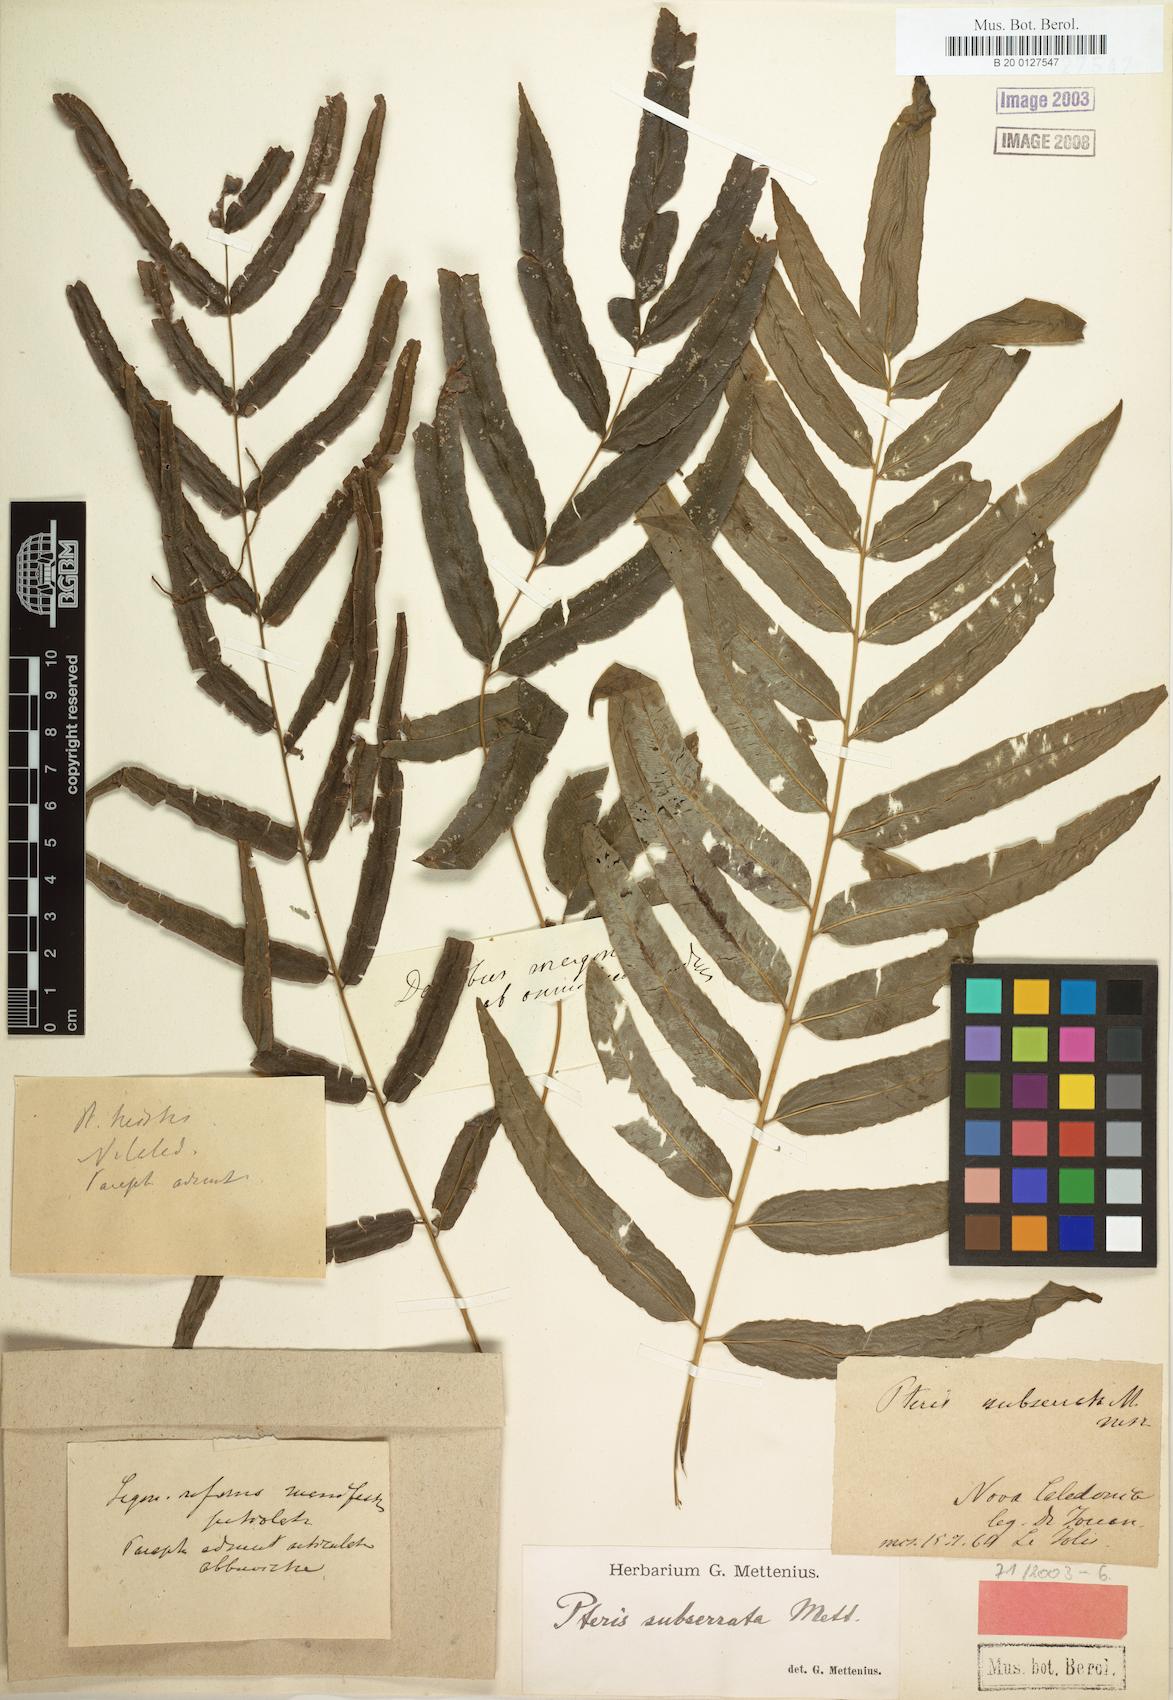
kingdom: Plantae
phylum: Tracheophyta
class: Polypodiopsida
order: Polypodiales
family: Pteridaceae
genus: Pteris
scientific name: Pteris balansae
